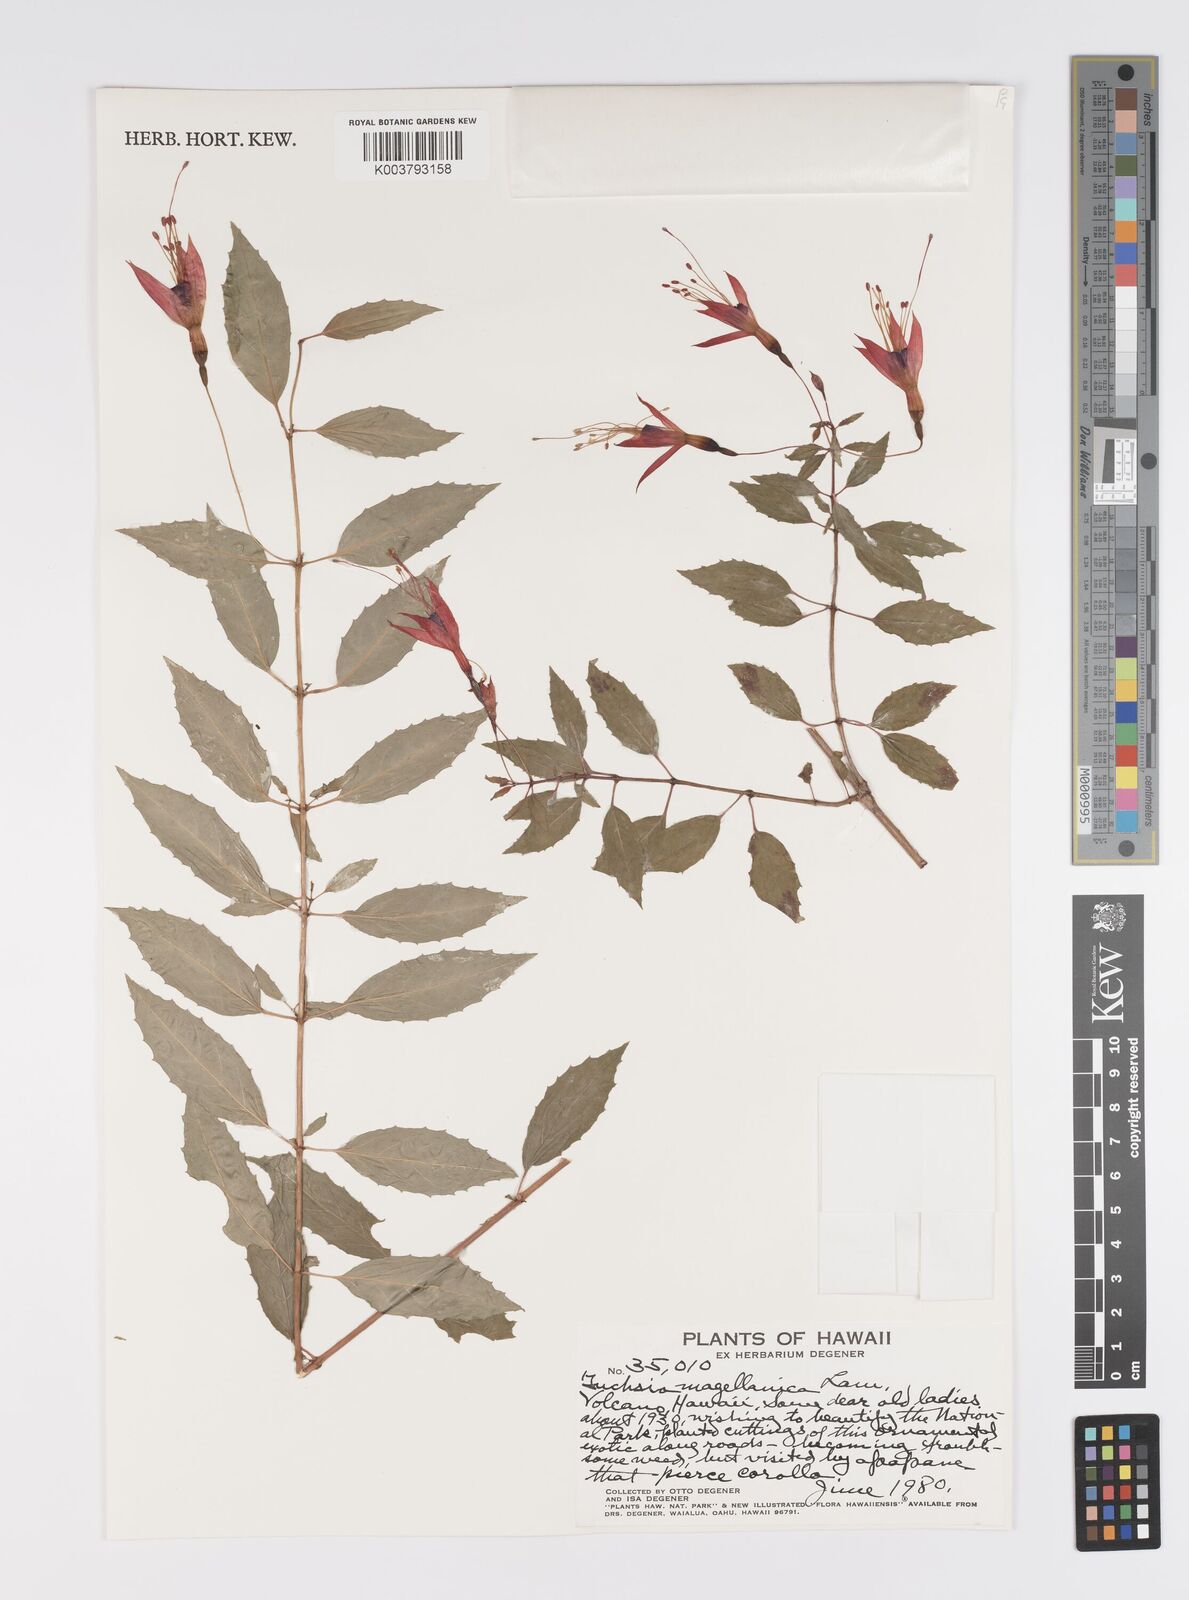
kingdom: Plantae
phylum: Tracheophyta
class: Magnoliopsida
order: Myrtales
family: Onagraceae
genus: Fuchsia
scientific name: Fuchsia magellanica
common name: Hardy fuchsia
